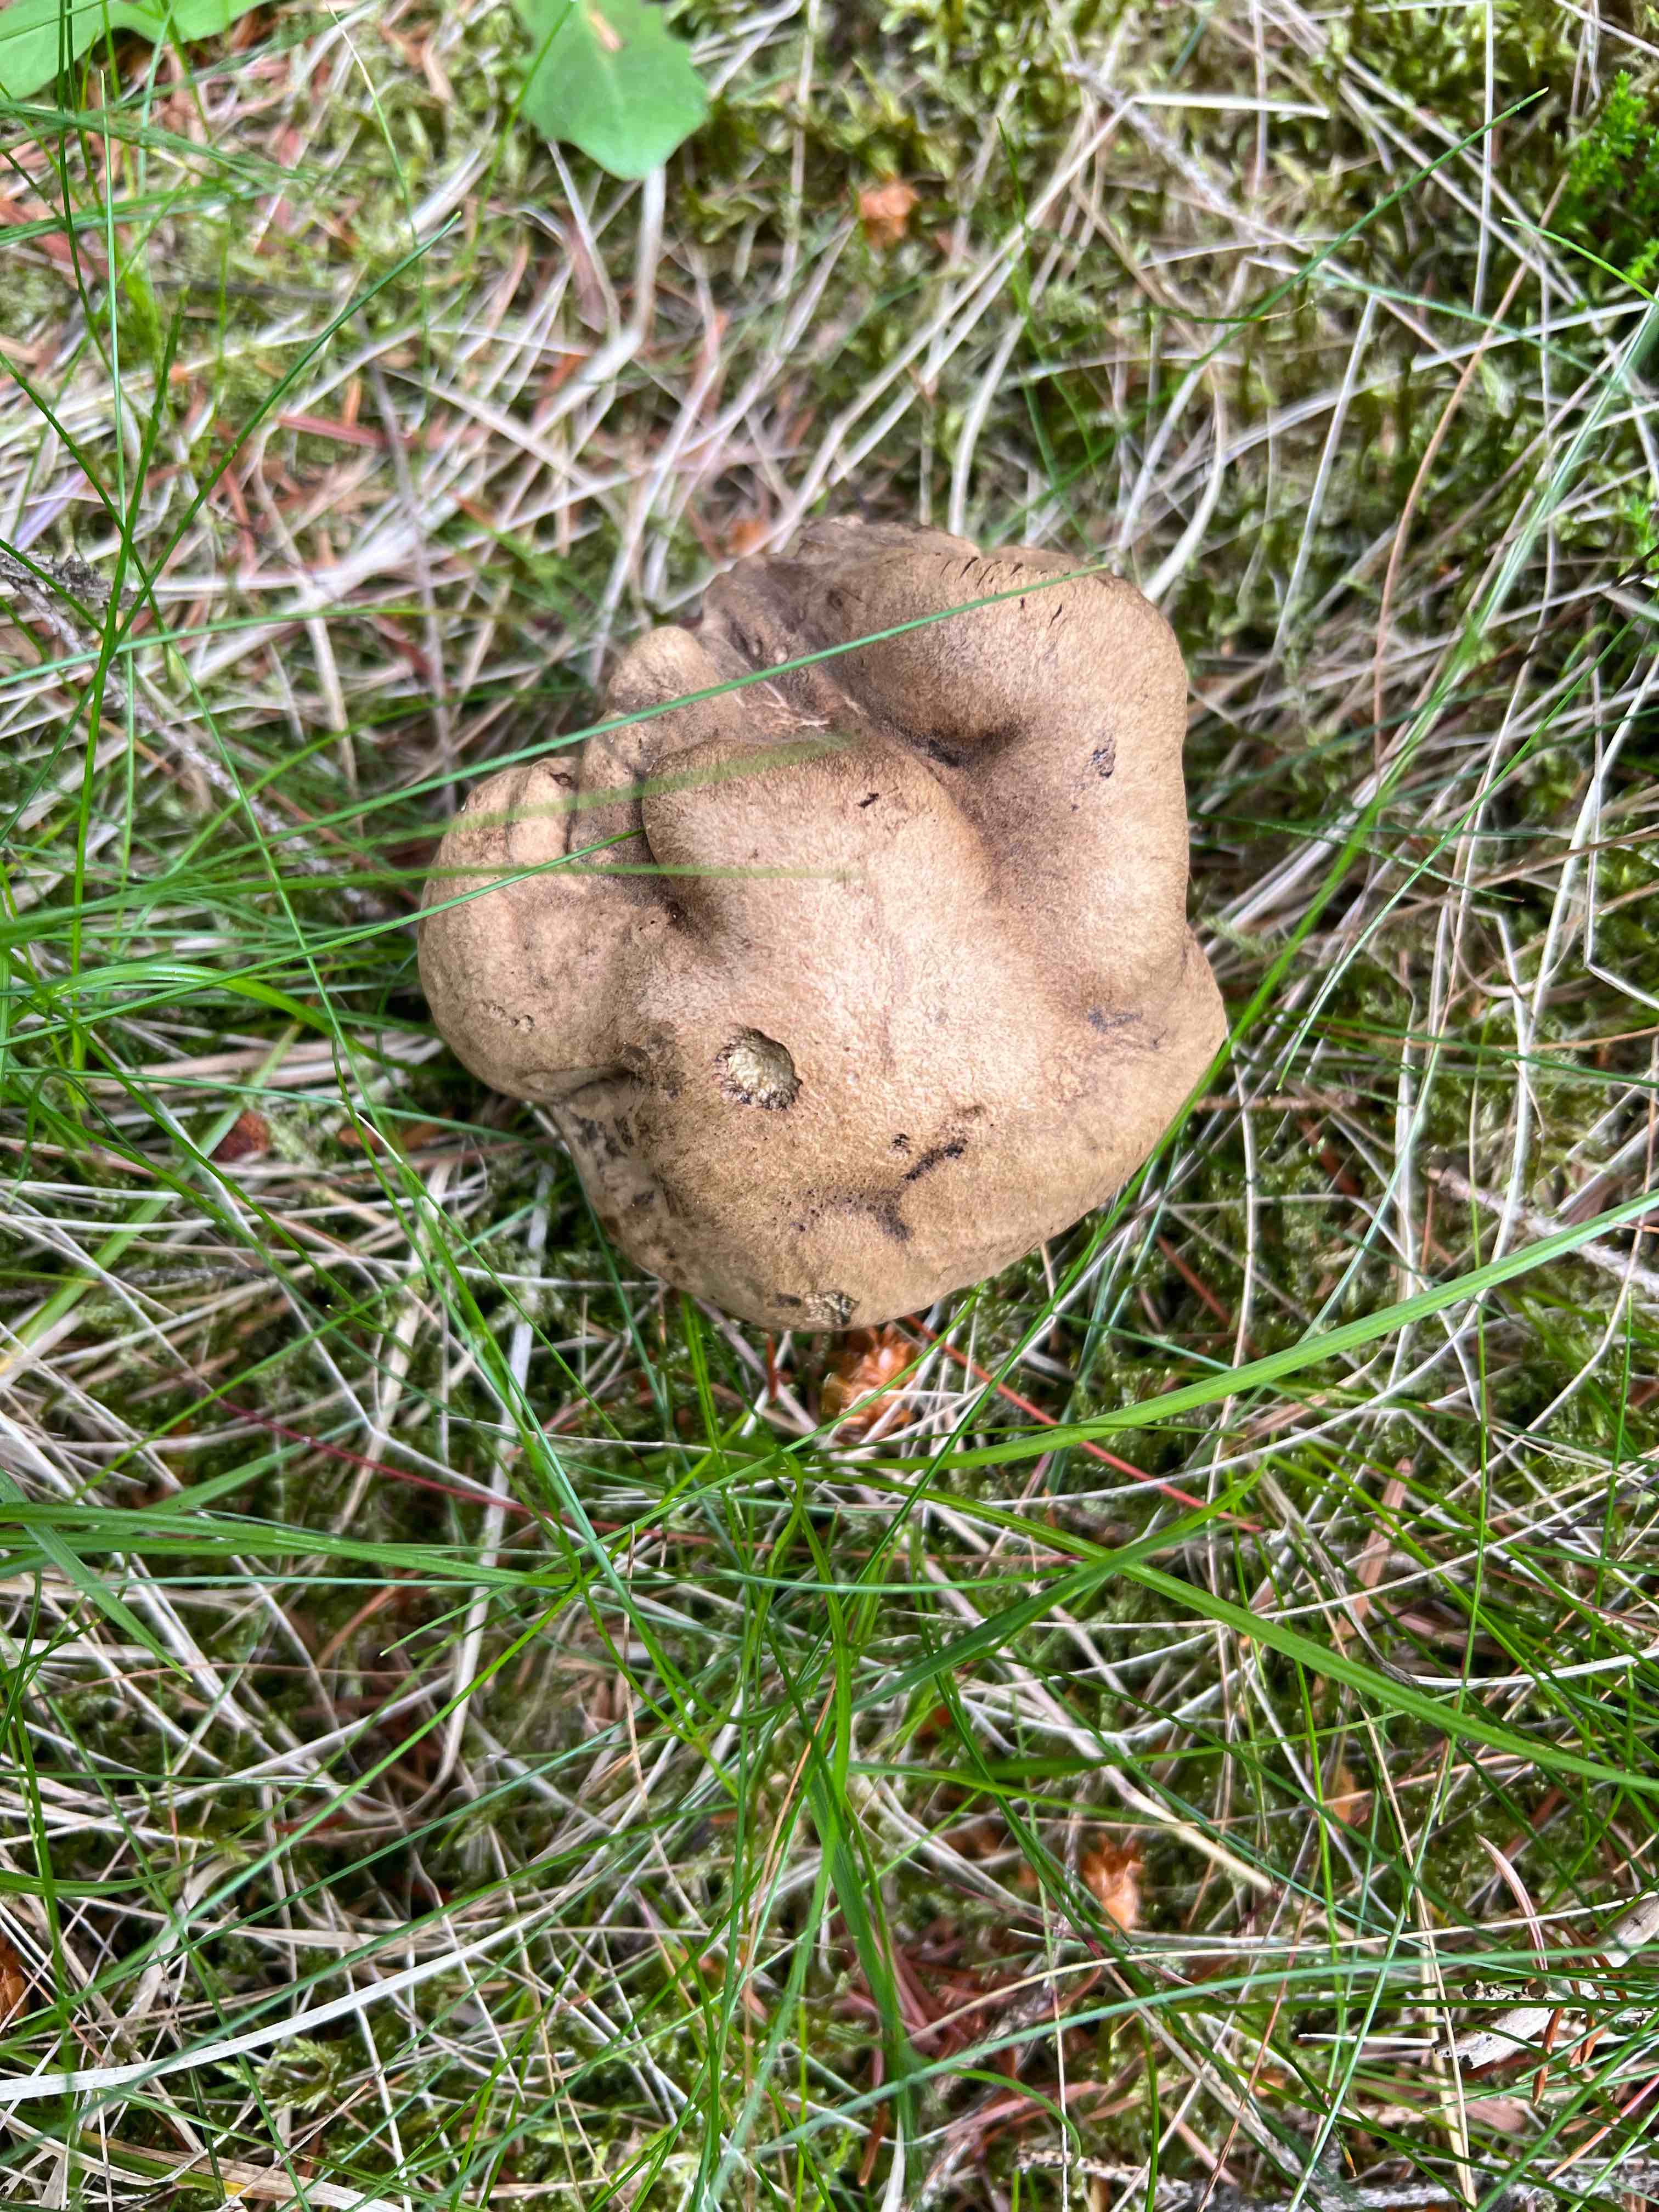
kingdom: Fungi
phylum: Basidiomycota
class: Agaricomycetes
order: Boletales
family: Boletaceae
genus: Caloboletus
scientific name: Caloboletus calopus
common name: skønfodet rørhat
